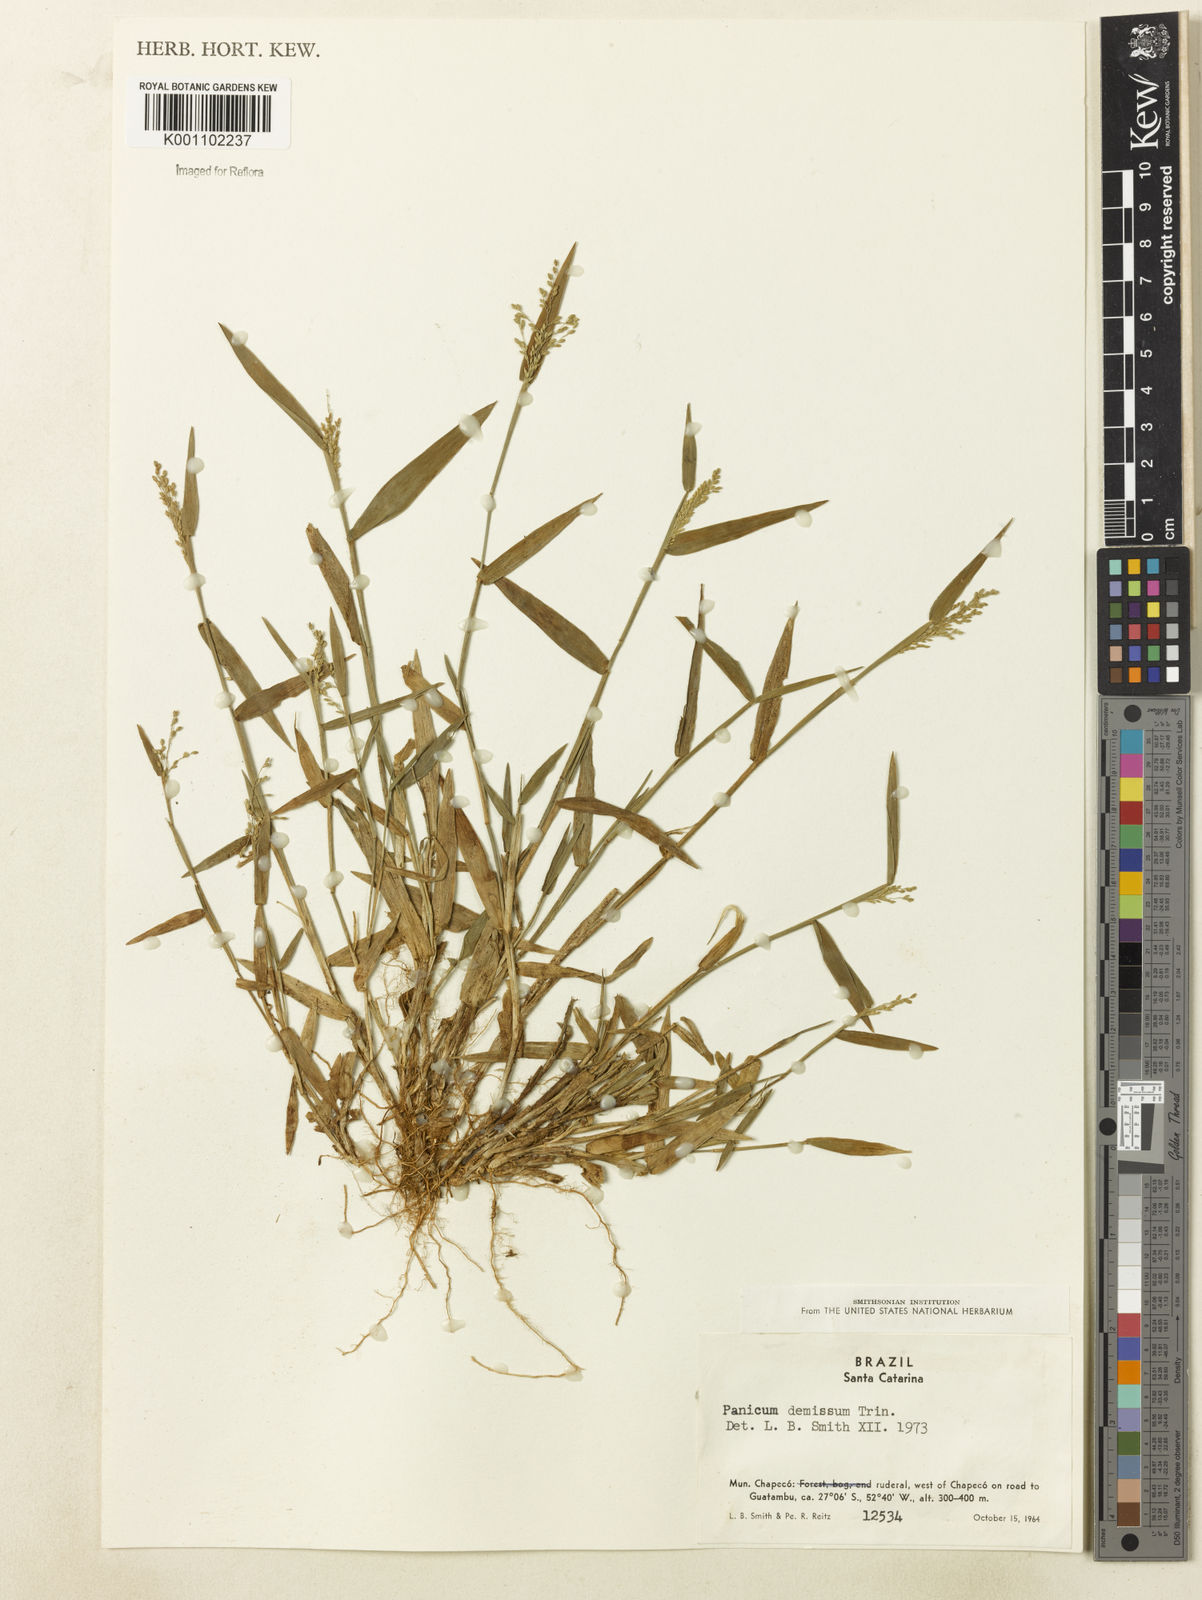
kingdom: Plantae
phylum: Tracheophyta
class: Liliopsida
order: Poales
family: Poaceae
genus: Dichanthelium
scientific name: Dichanthelium sabulorum
